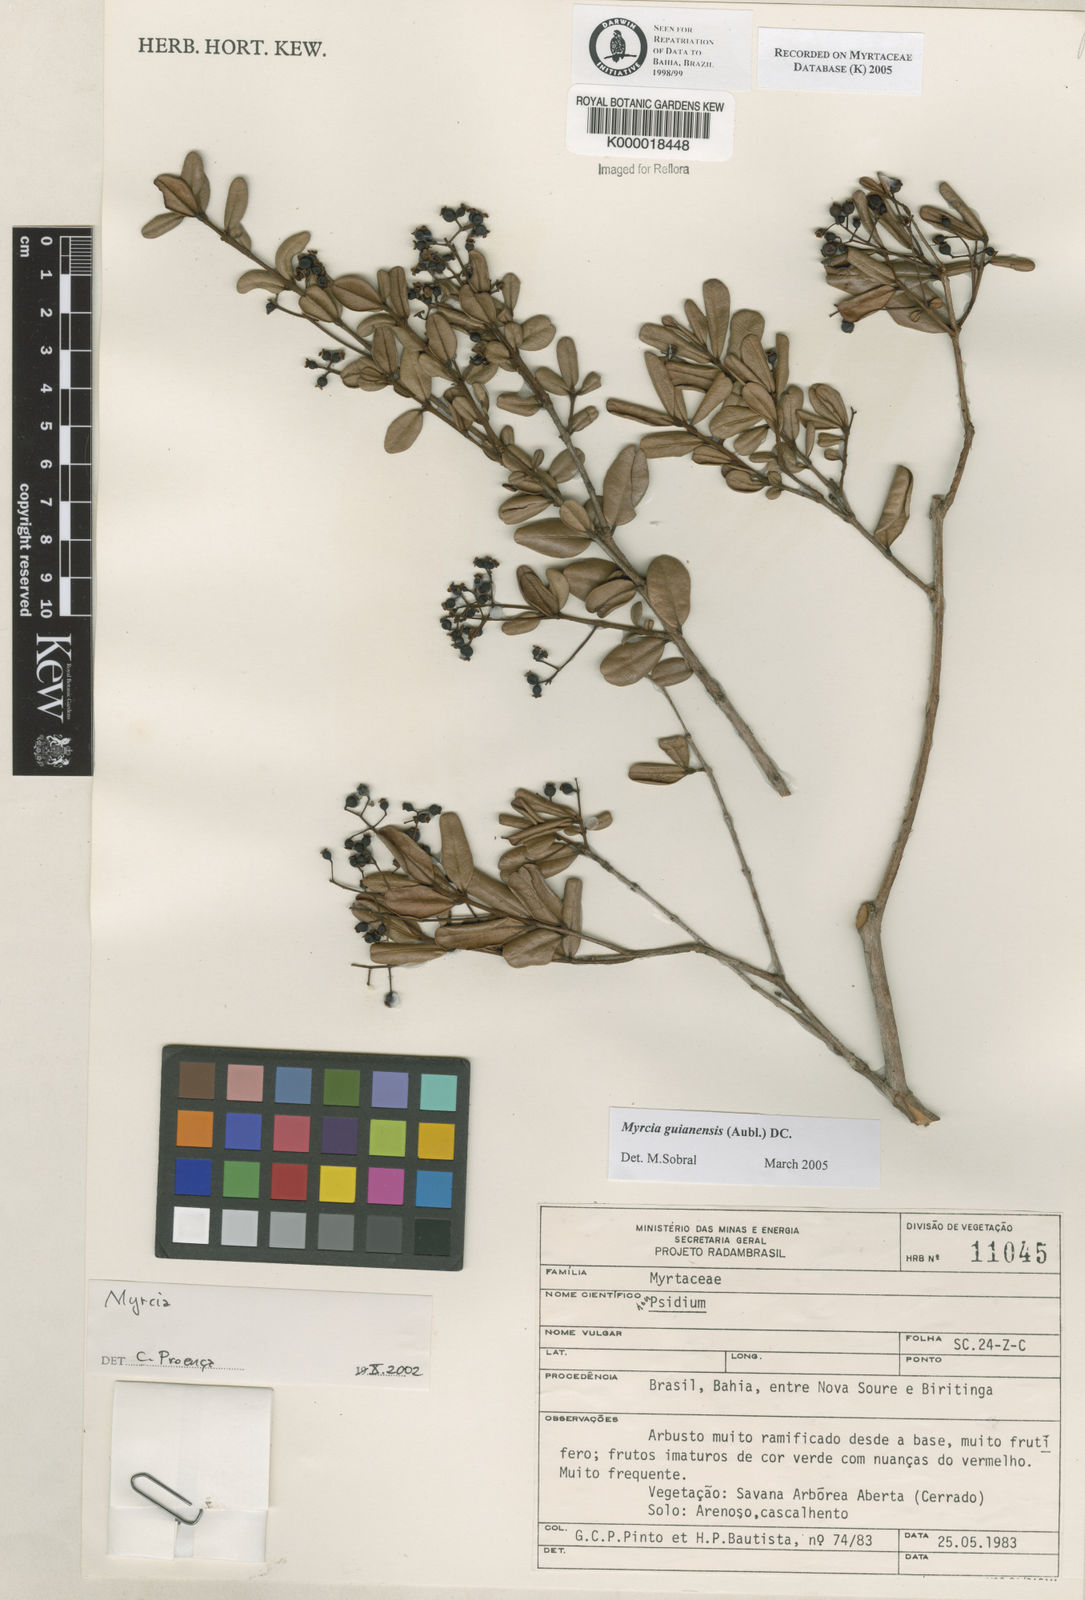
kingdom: Plantae
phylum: Tracheophyta
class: Magnoliopsida
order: Myrtales
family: Myrtaceae
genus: Myrcia
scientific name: Myrcia
